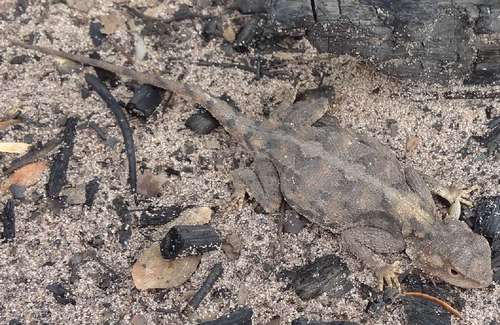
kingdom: Animalia
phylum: Chordata
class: Squamata
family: Agamidae
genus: Agama
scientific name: Agama aculeata
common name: Common ground agama
